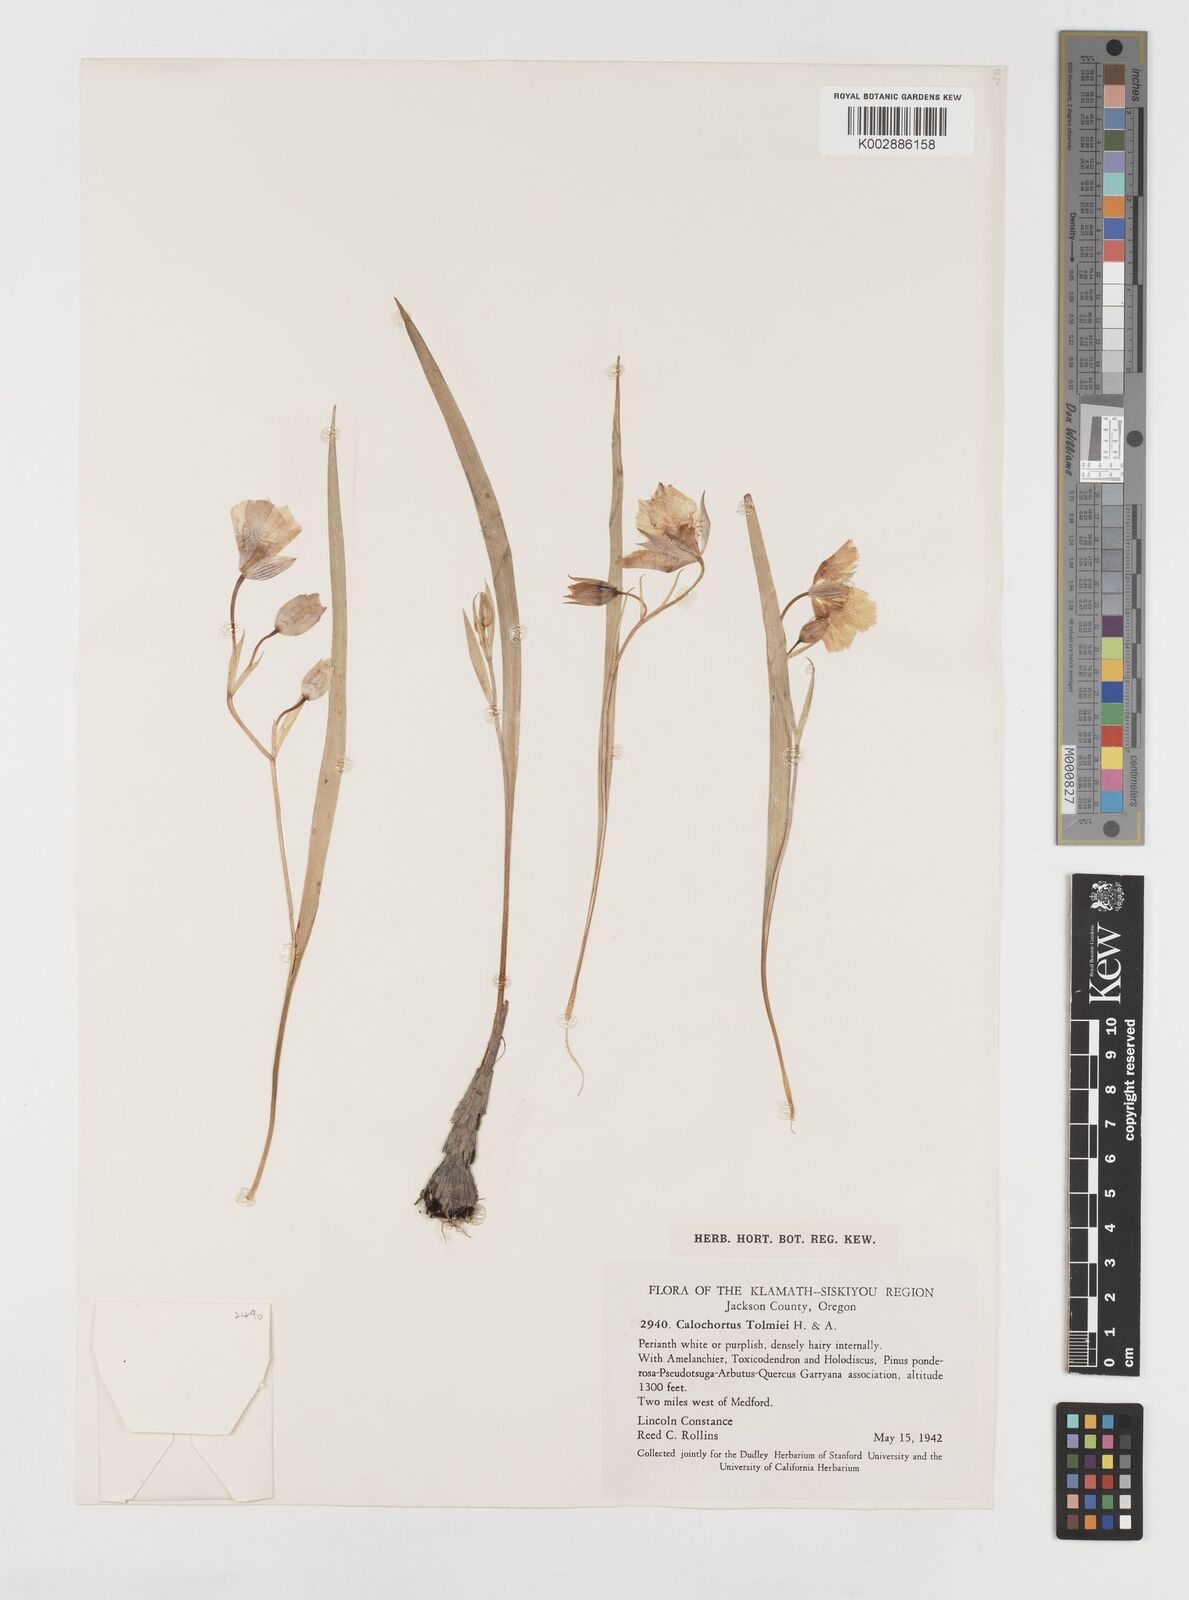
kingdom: Plantae
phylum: Tracheophyta
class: Liliopsida
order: Liliales
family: Liliaceae
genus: Calochortus
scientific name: Calochortus tolmiei
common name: Pussy-ears
